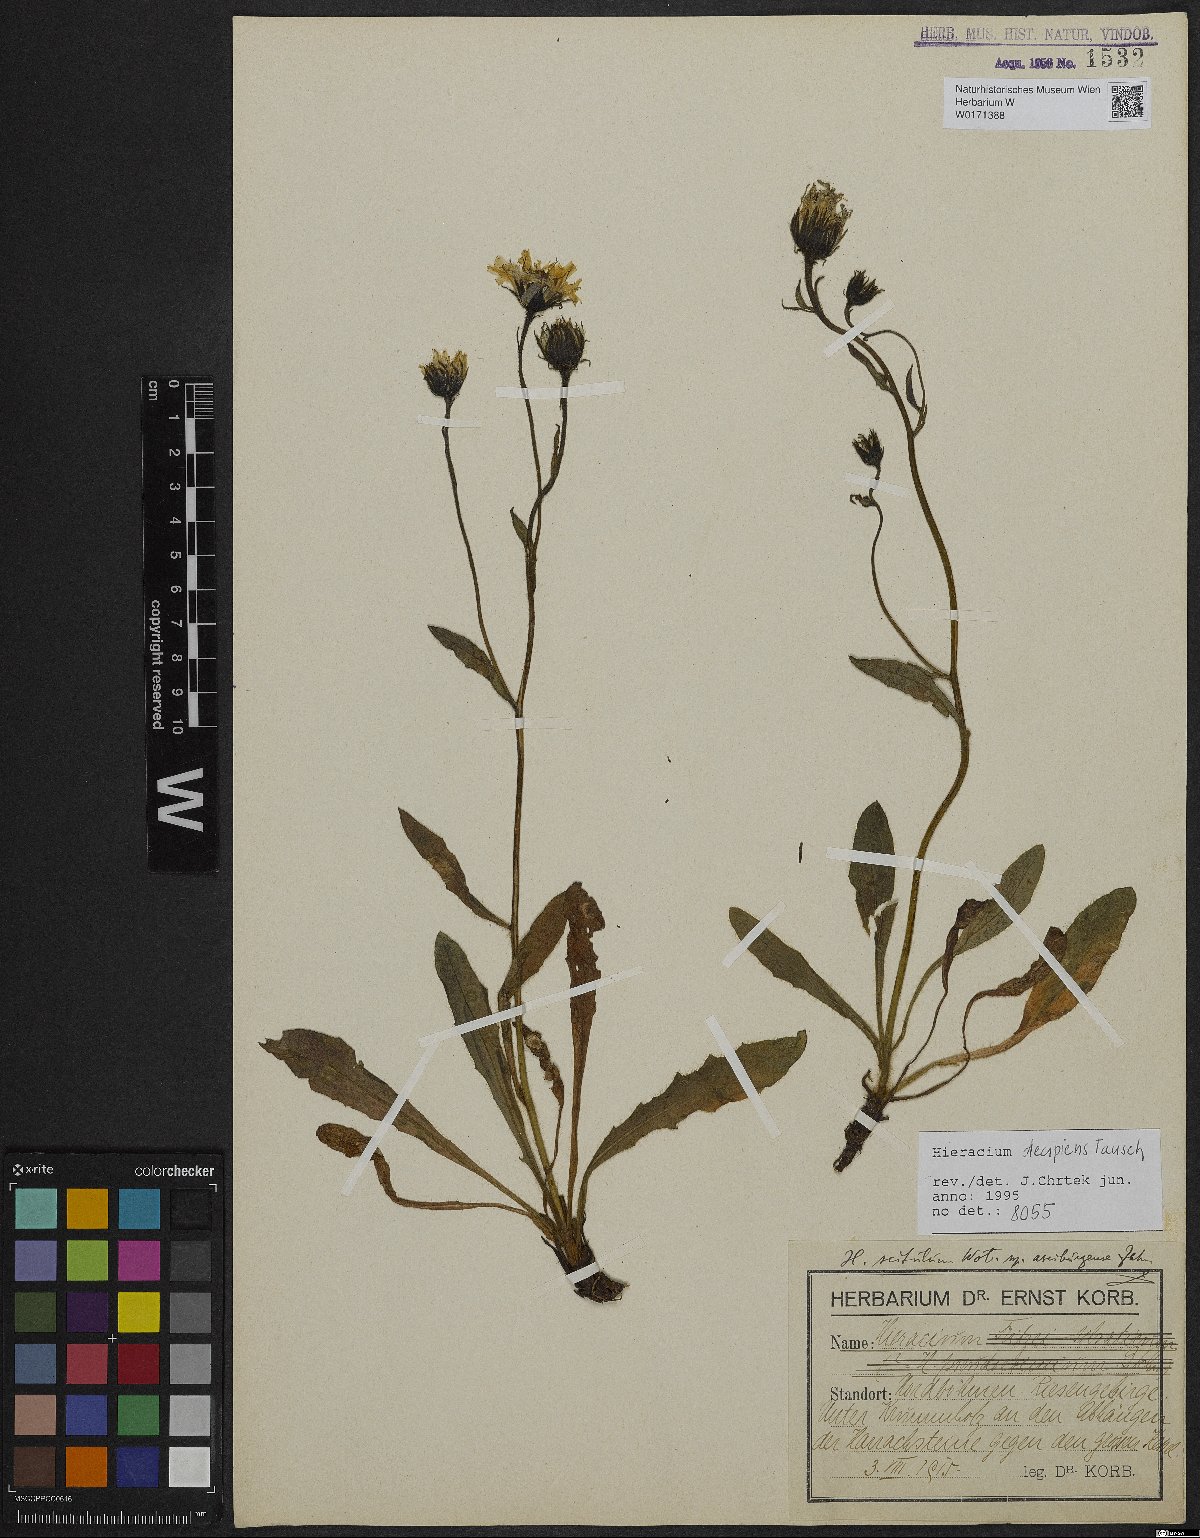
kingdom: Plantae
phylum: Tracheophyta
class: Magnoliopsida
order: Asterales
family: Asteraceae
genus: Hieracium
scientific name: Hieracium nigrescens
